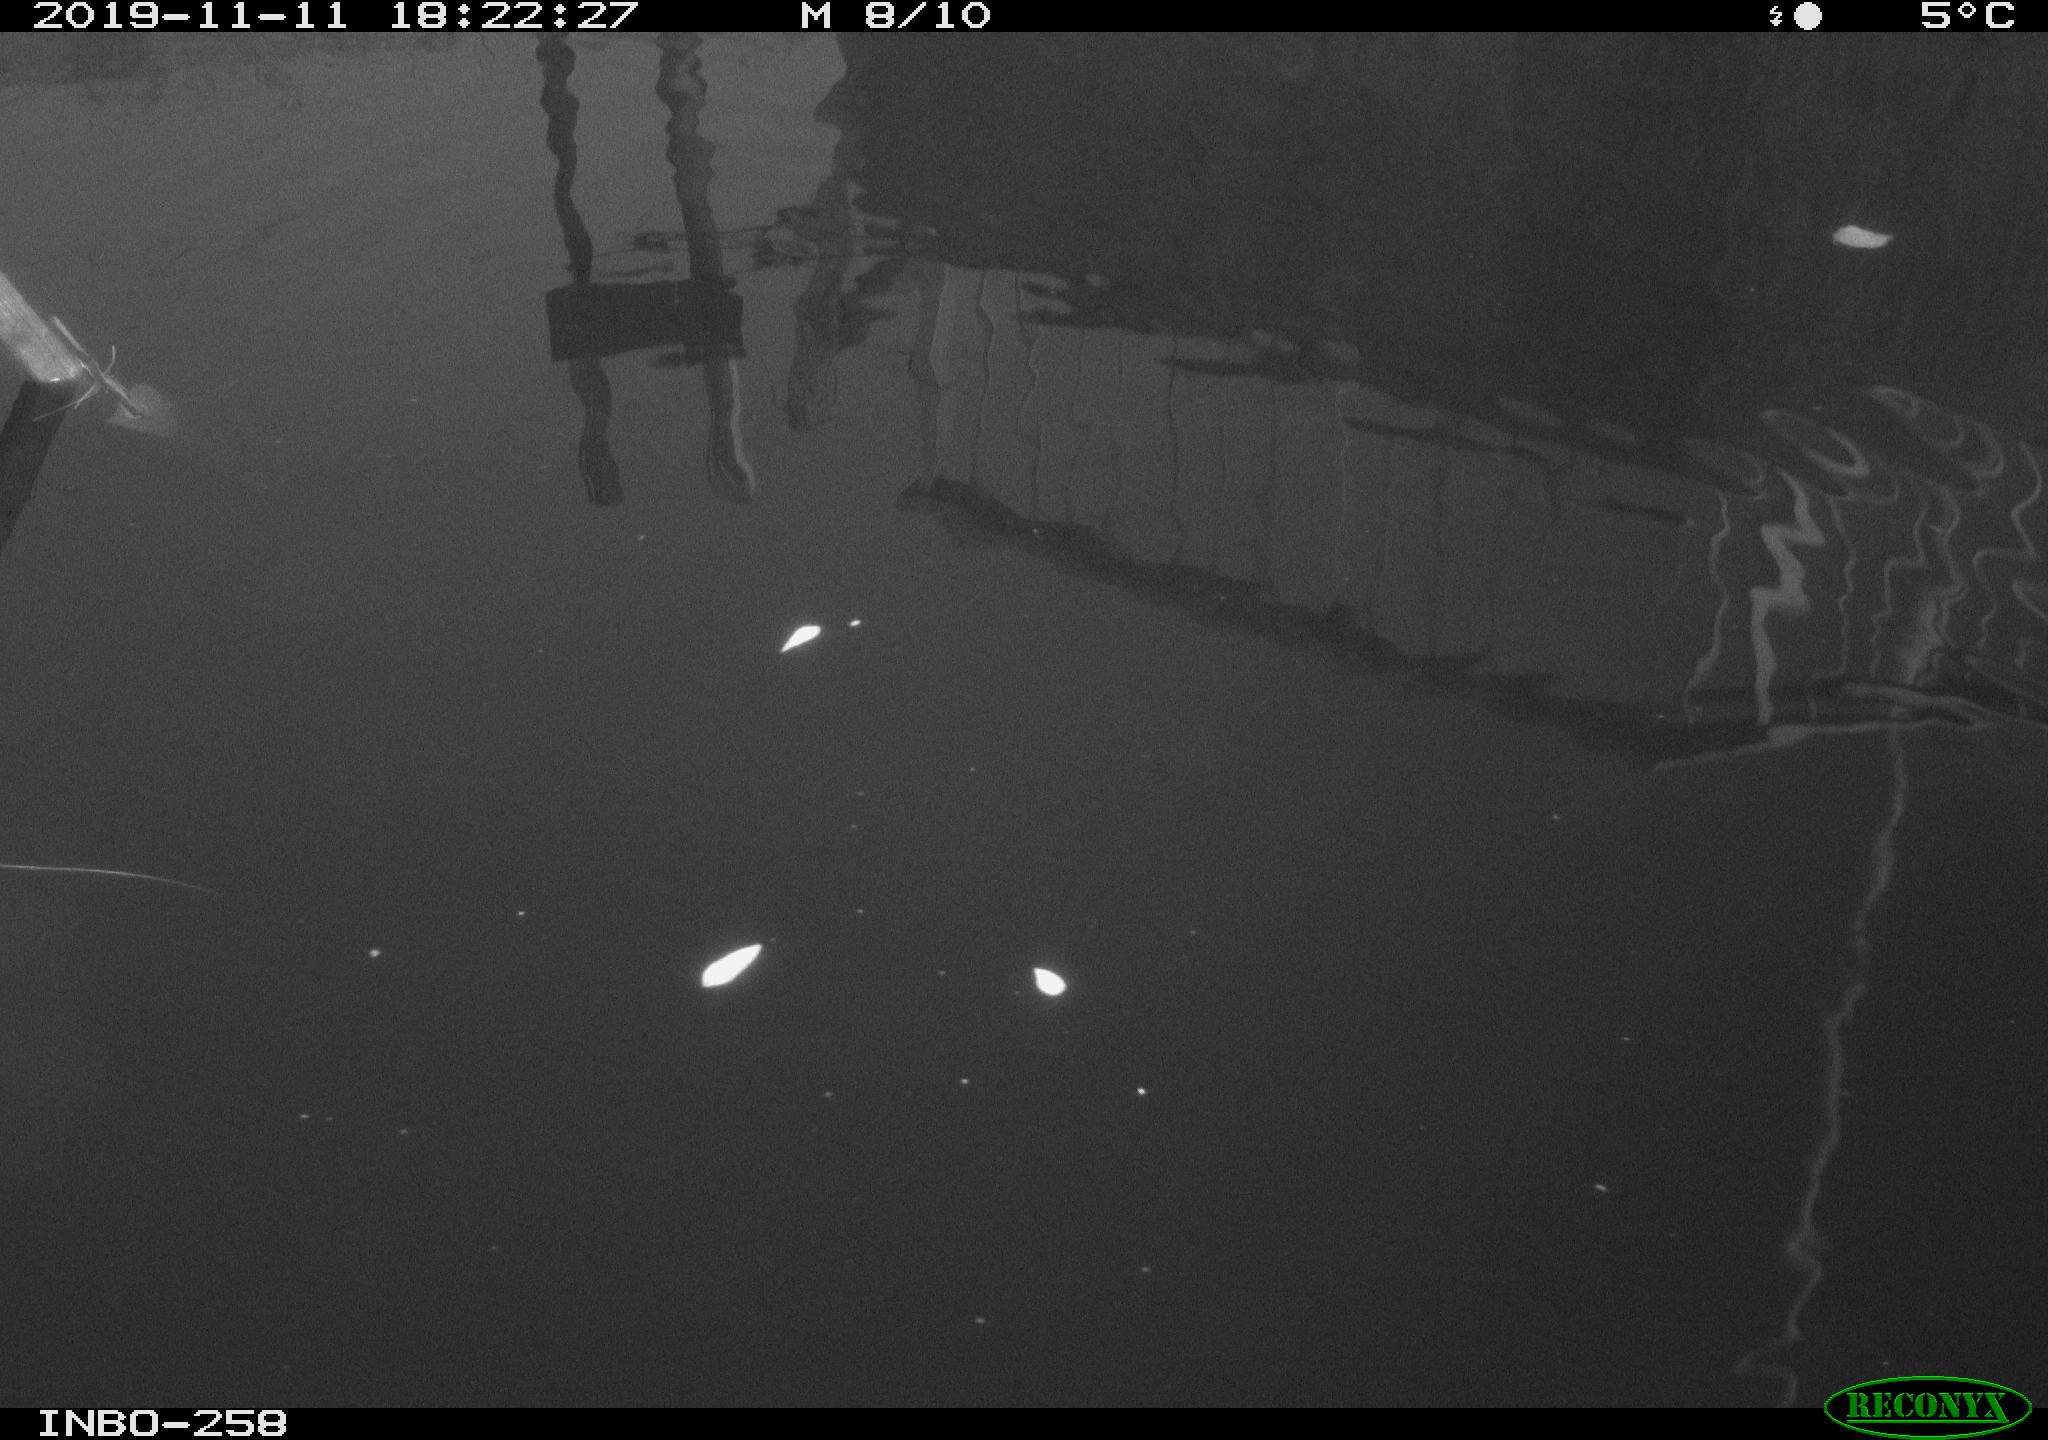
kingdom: Animalia
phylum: Chordata
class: Aves
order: Gruiformes
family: Rallidae
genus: Gallinula
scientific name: Gallinula chloropus
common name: Common moorhen
